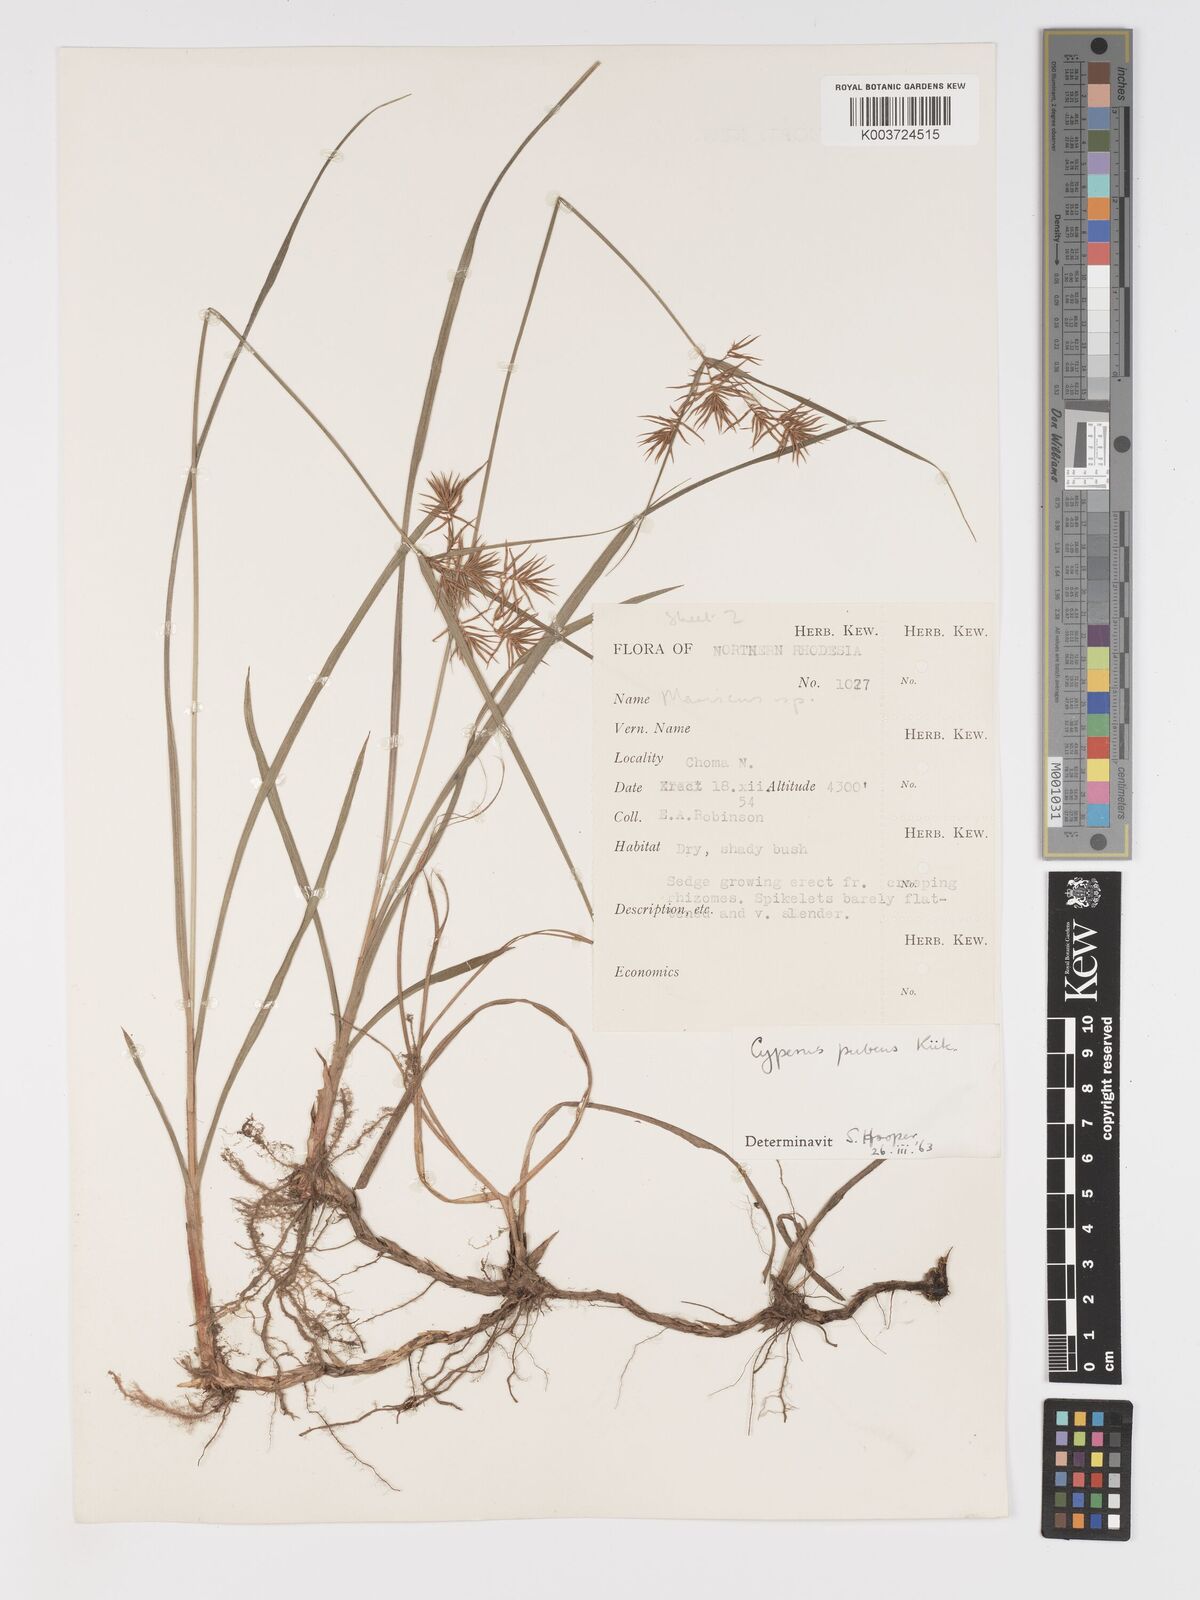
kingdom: Plantae
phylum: Tracheophyta
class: Liliopsida
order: Poales
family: Cyperaceae
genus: Cyperus
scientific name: Cyperus pubens
